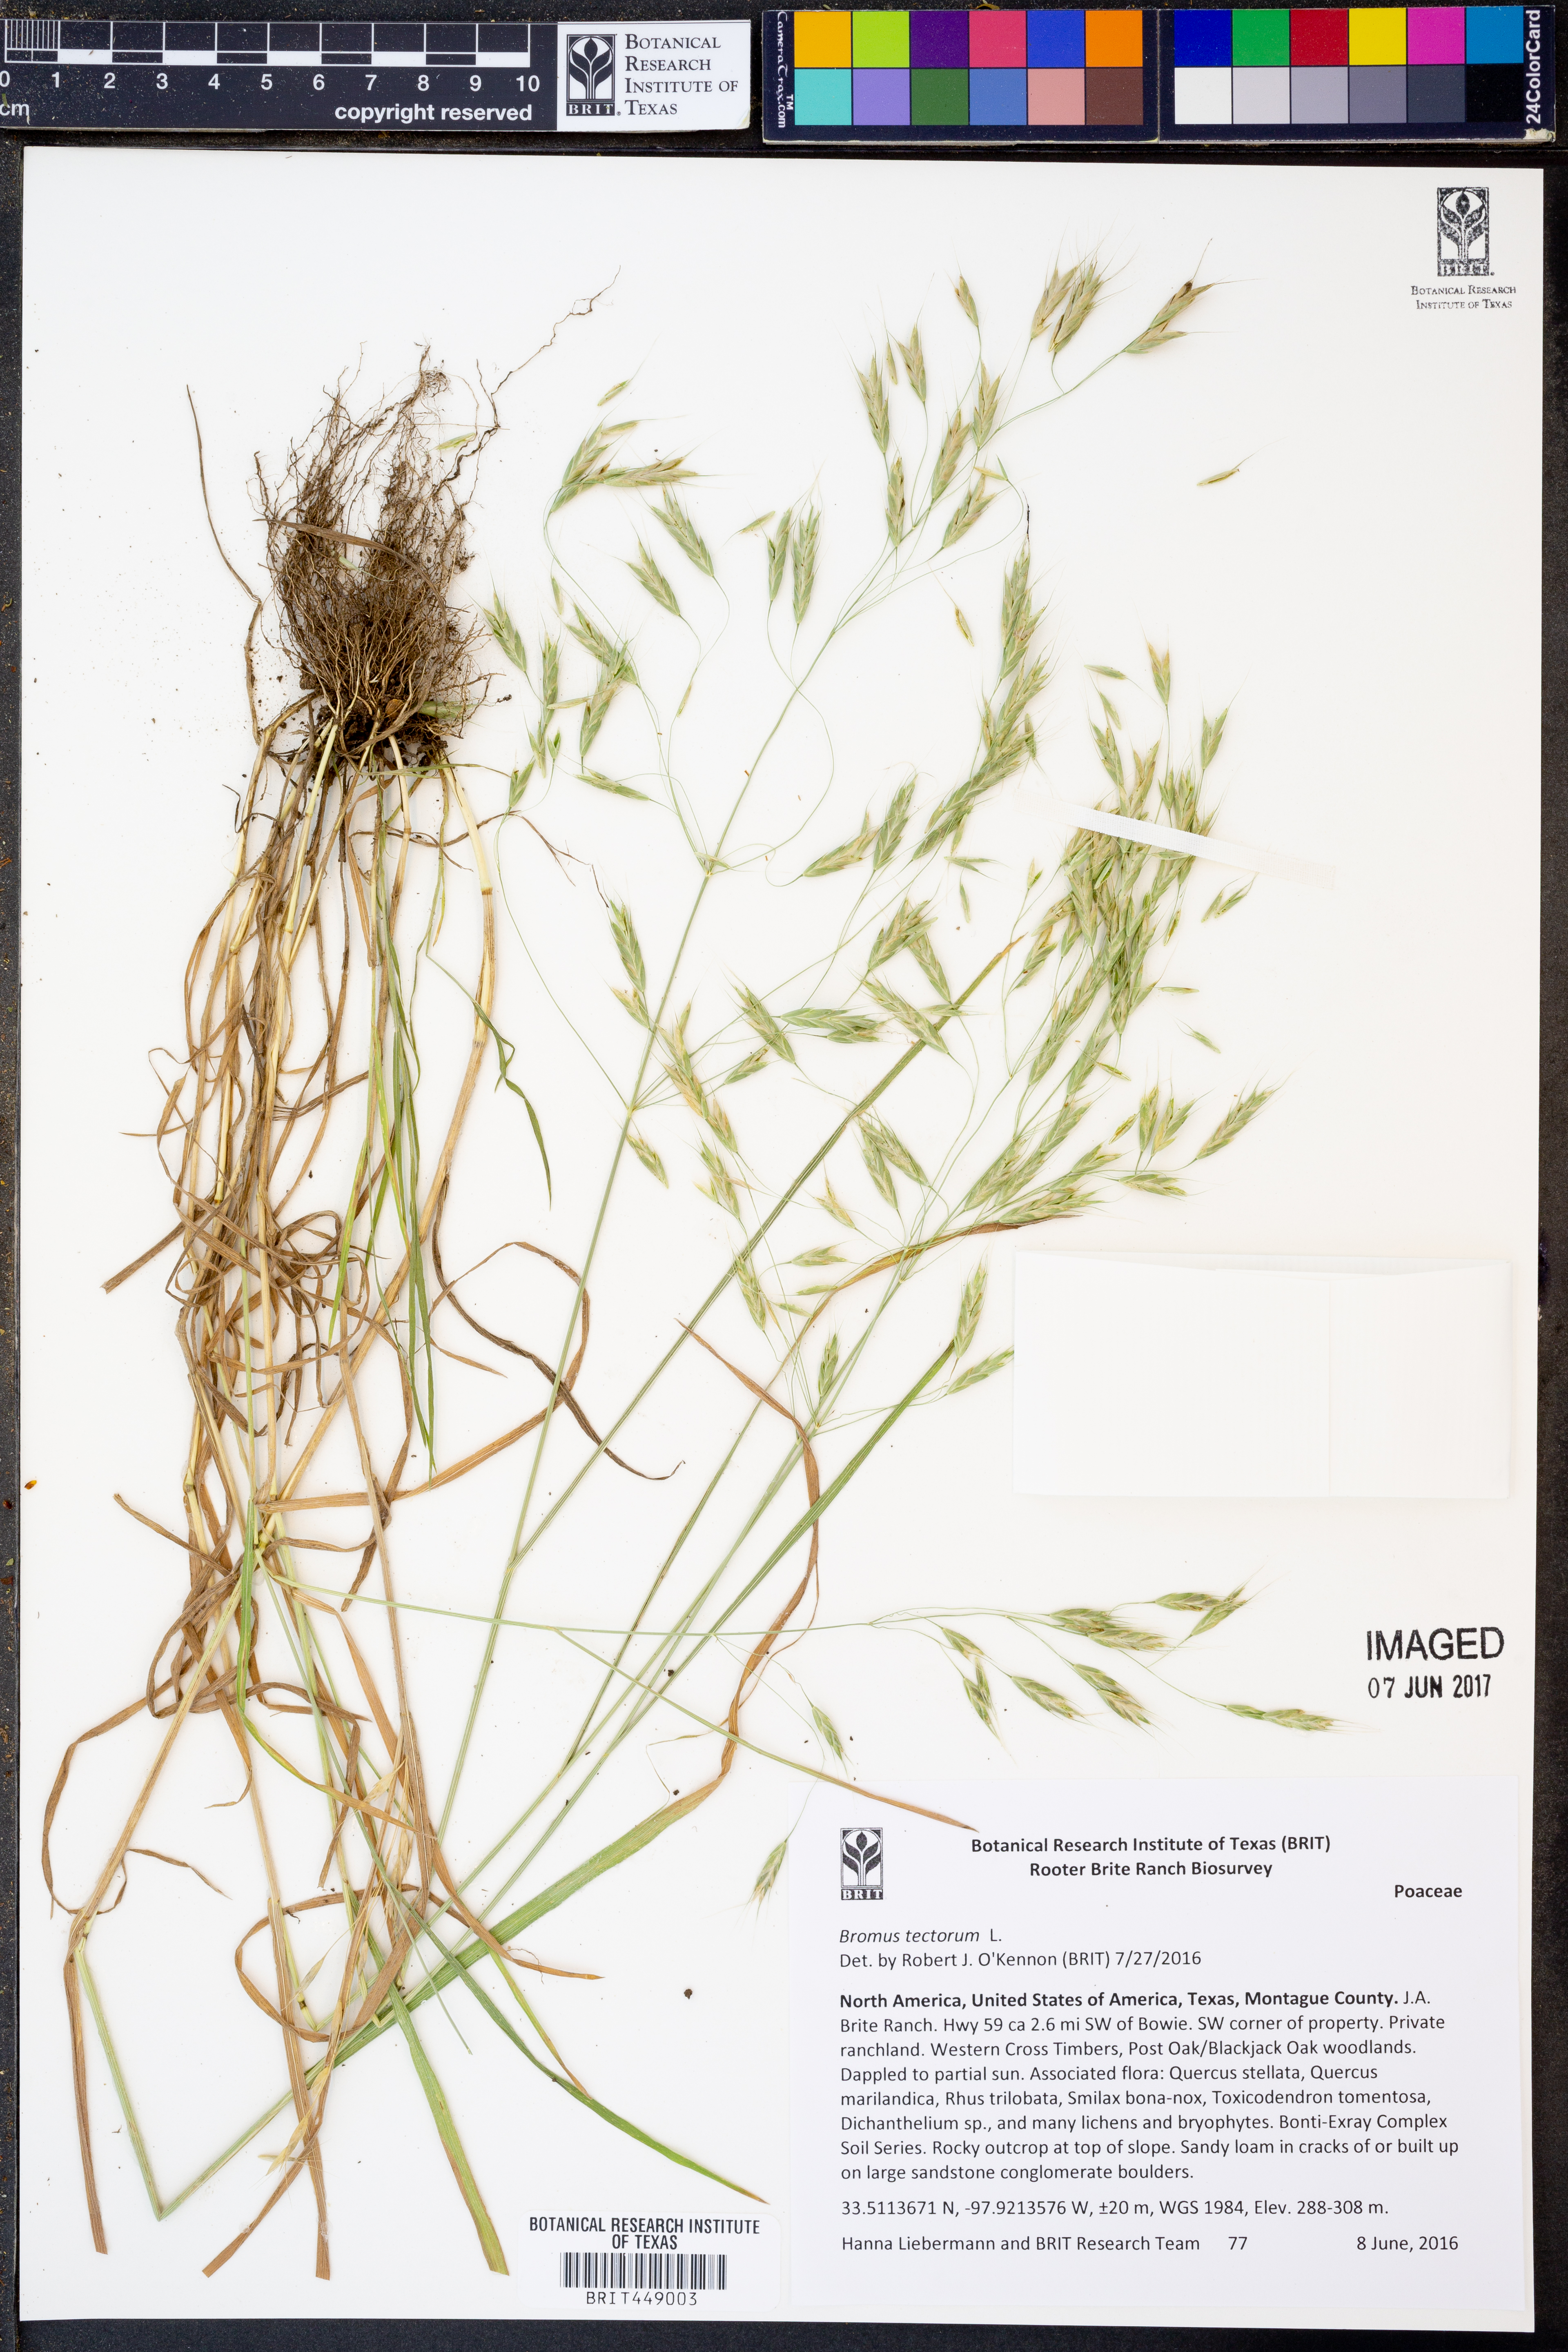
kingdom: Plantae
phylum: Tracheophyta
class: Liliopsida
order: Poales
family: Poaceae
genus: Bromus
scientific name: Bromus tectorum
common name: Cheatgrass
